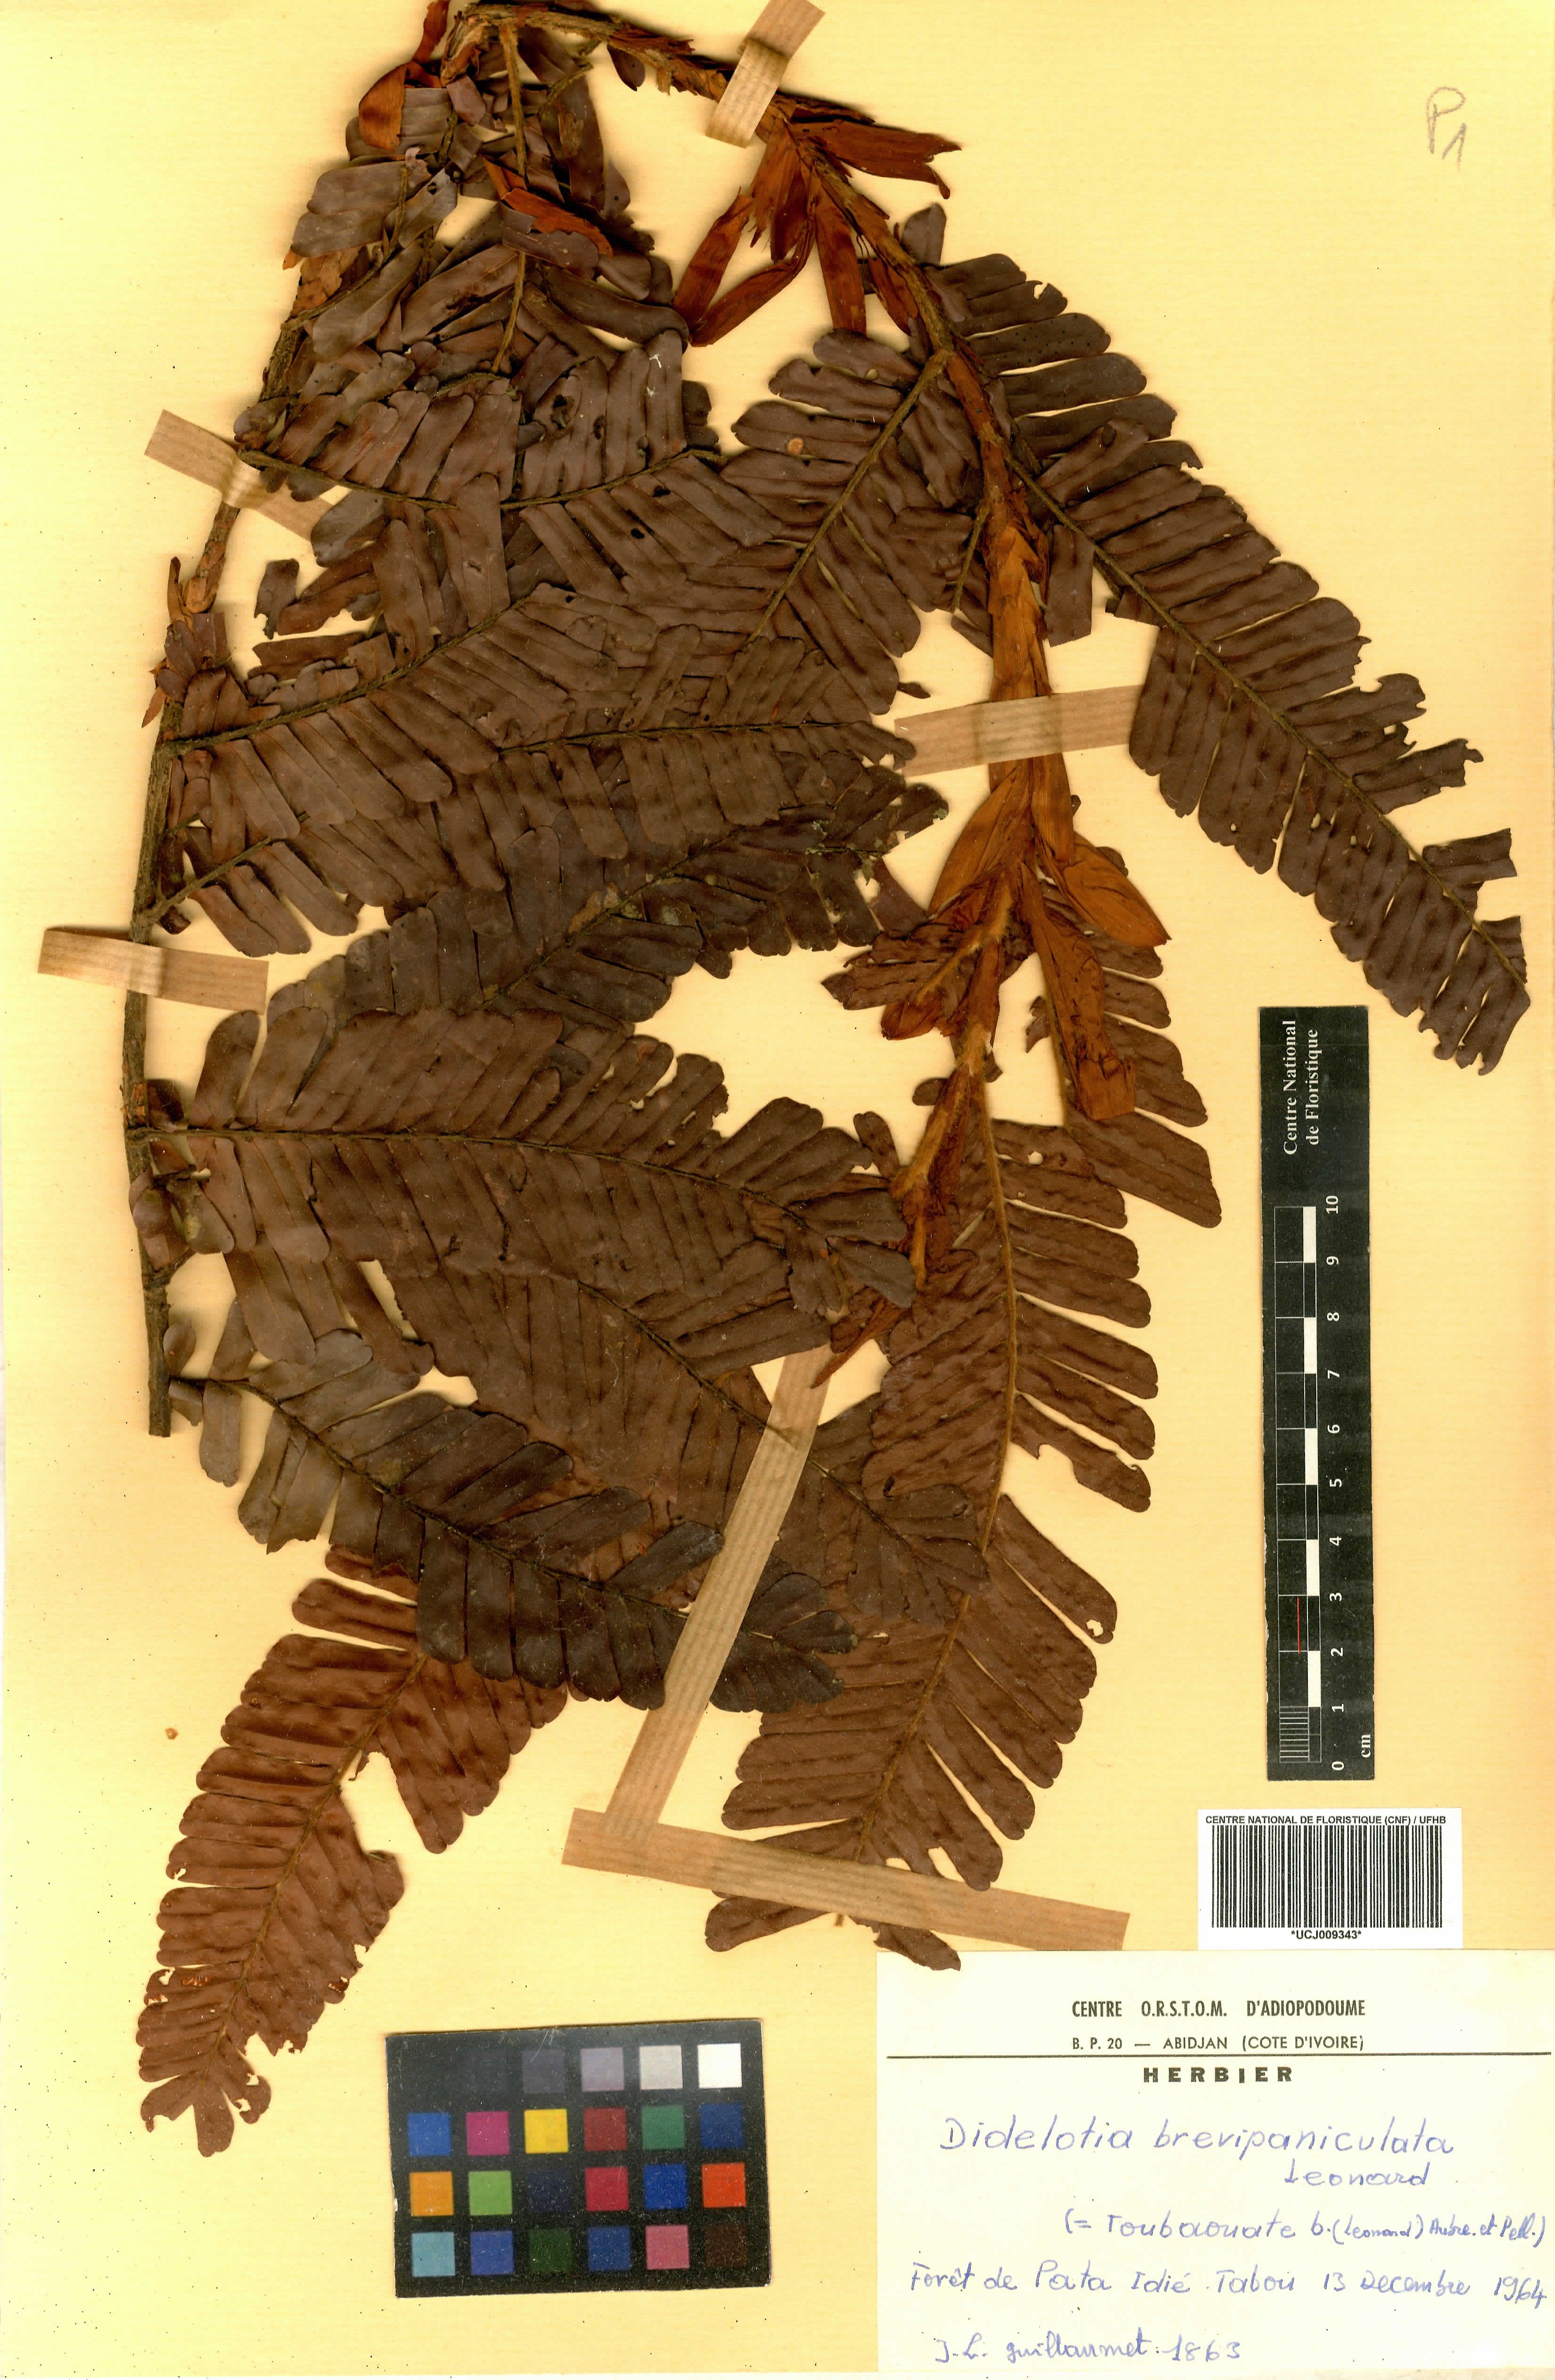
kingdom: Plantae
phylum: Tracheophyta
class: Magnoliopsida
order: Fabales
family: Fabaceae
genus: Didelotia
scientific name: Didelotia brevipaniculata
